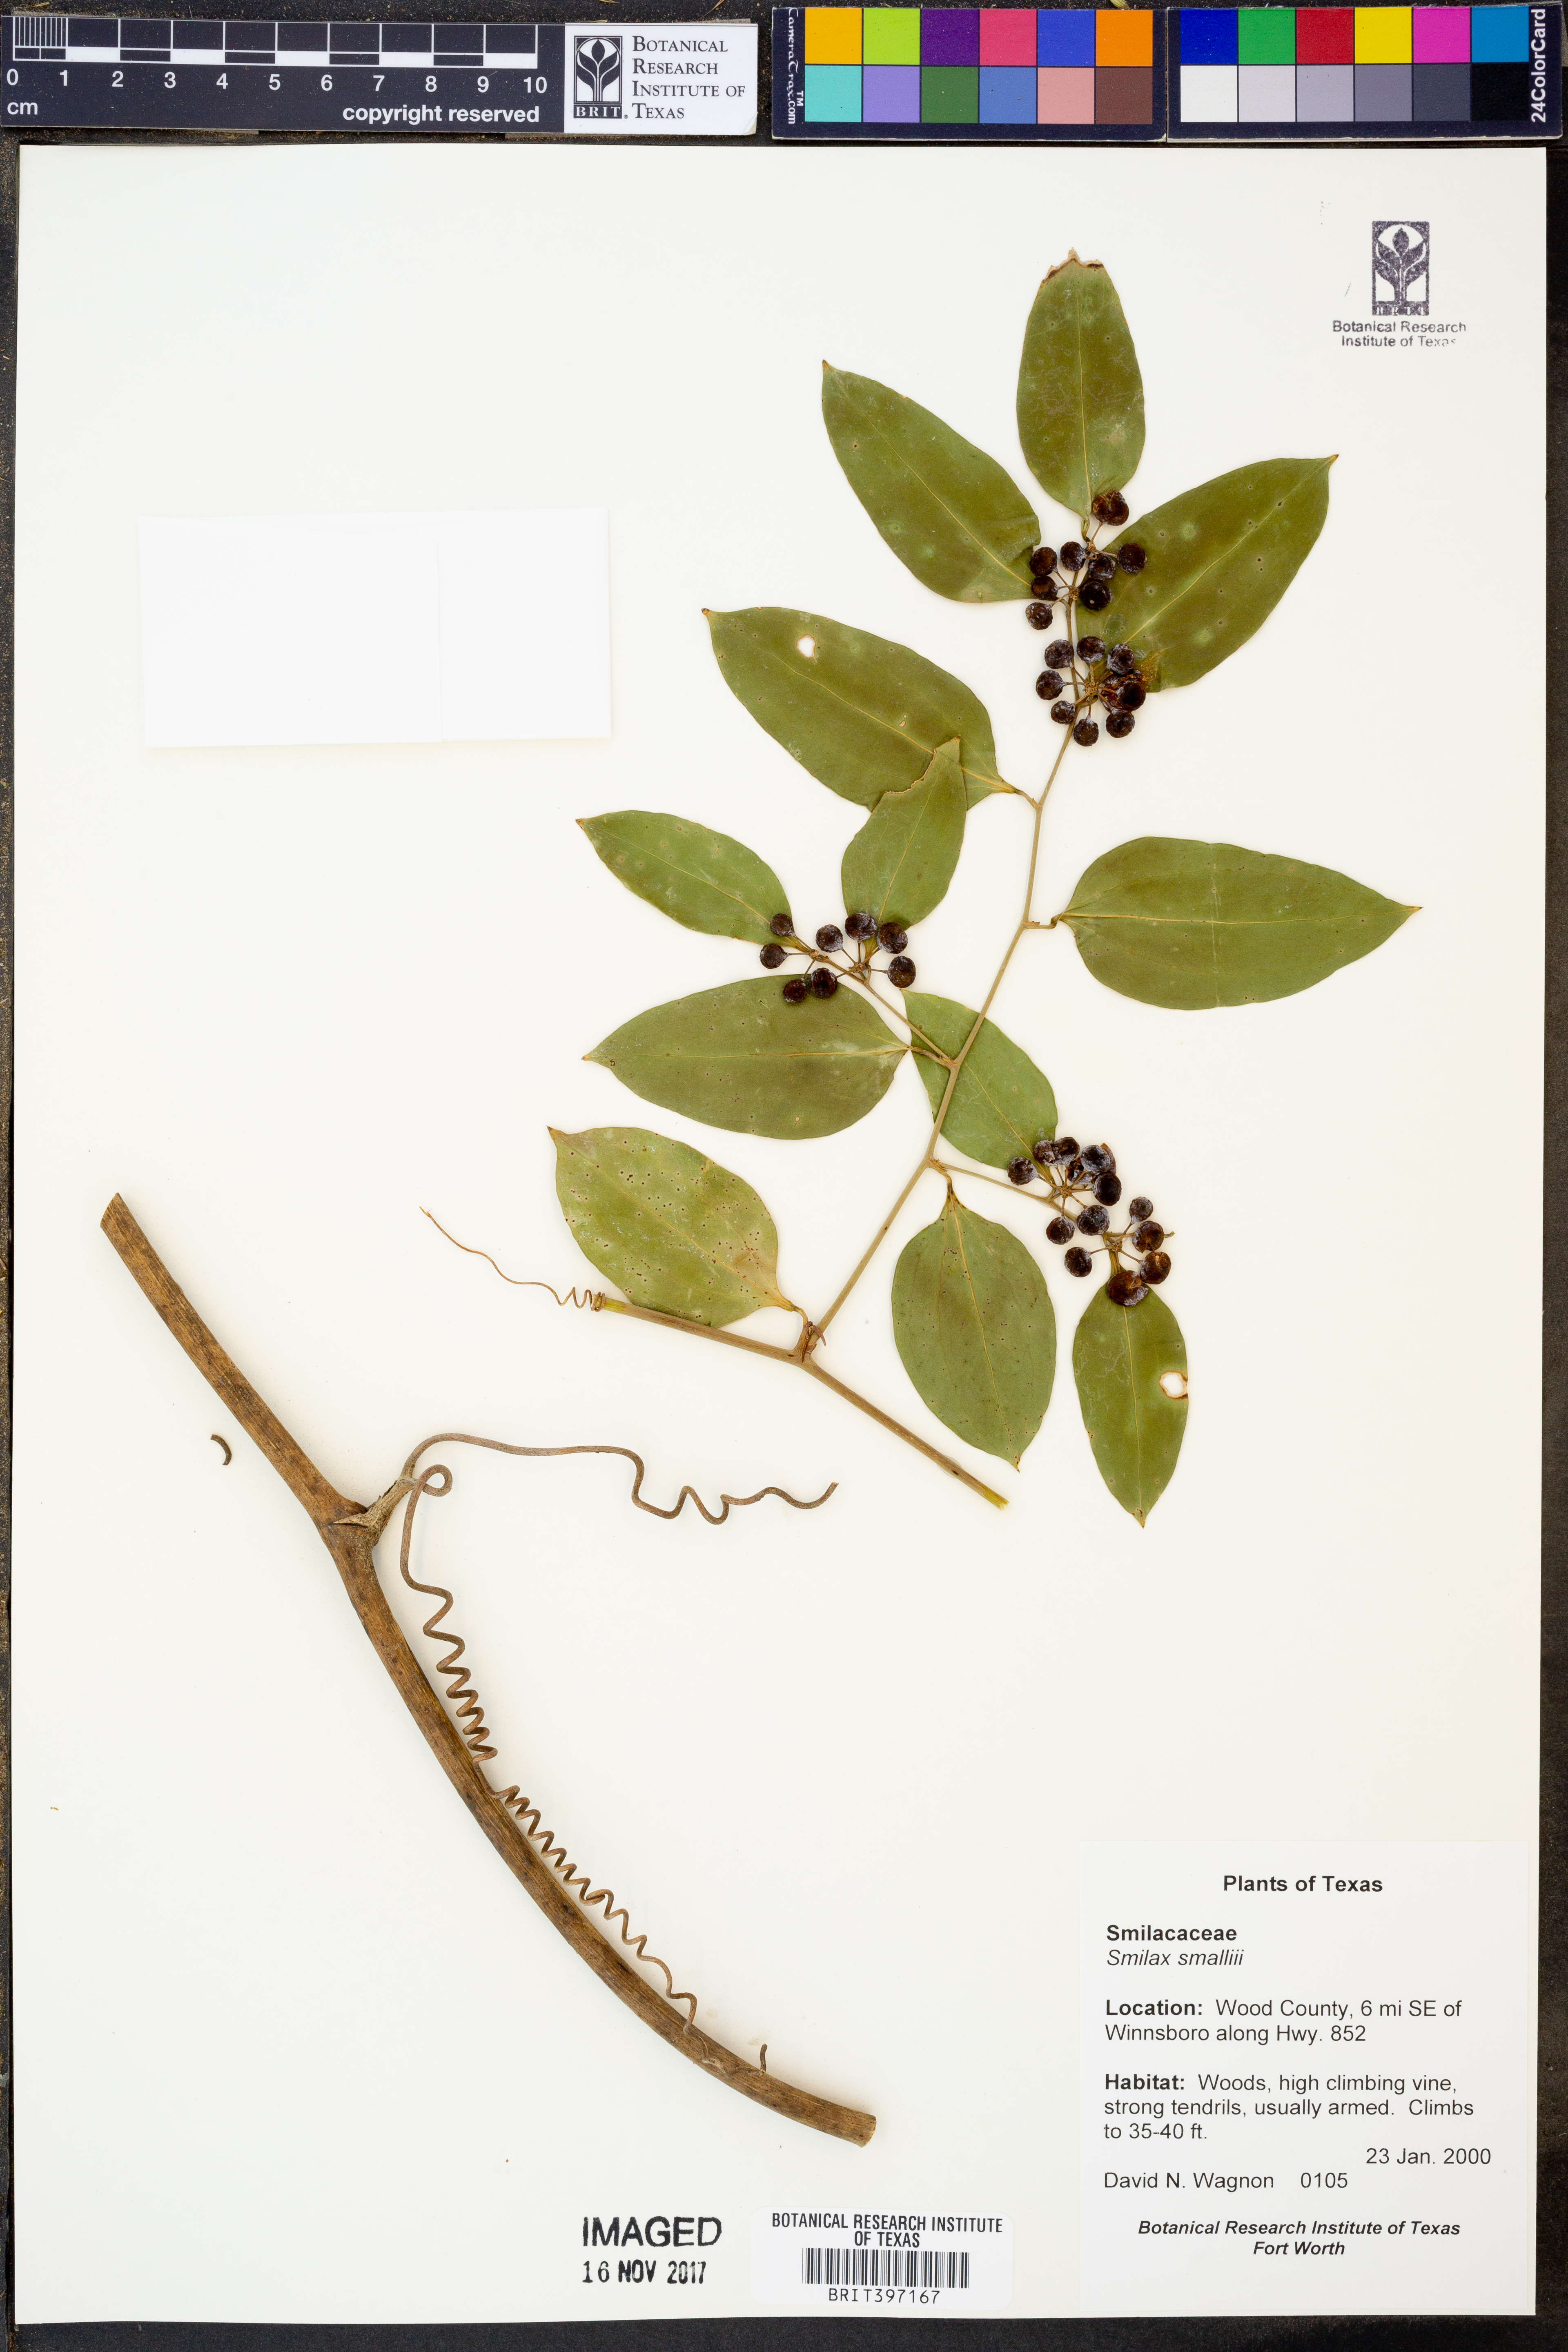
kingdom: Plantae
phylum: Tracheophyta
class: Liliopsida
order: Liliales
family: Smilacaceae
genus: Smilax
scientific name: Smilax maritima
